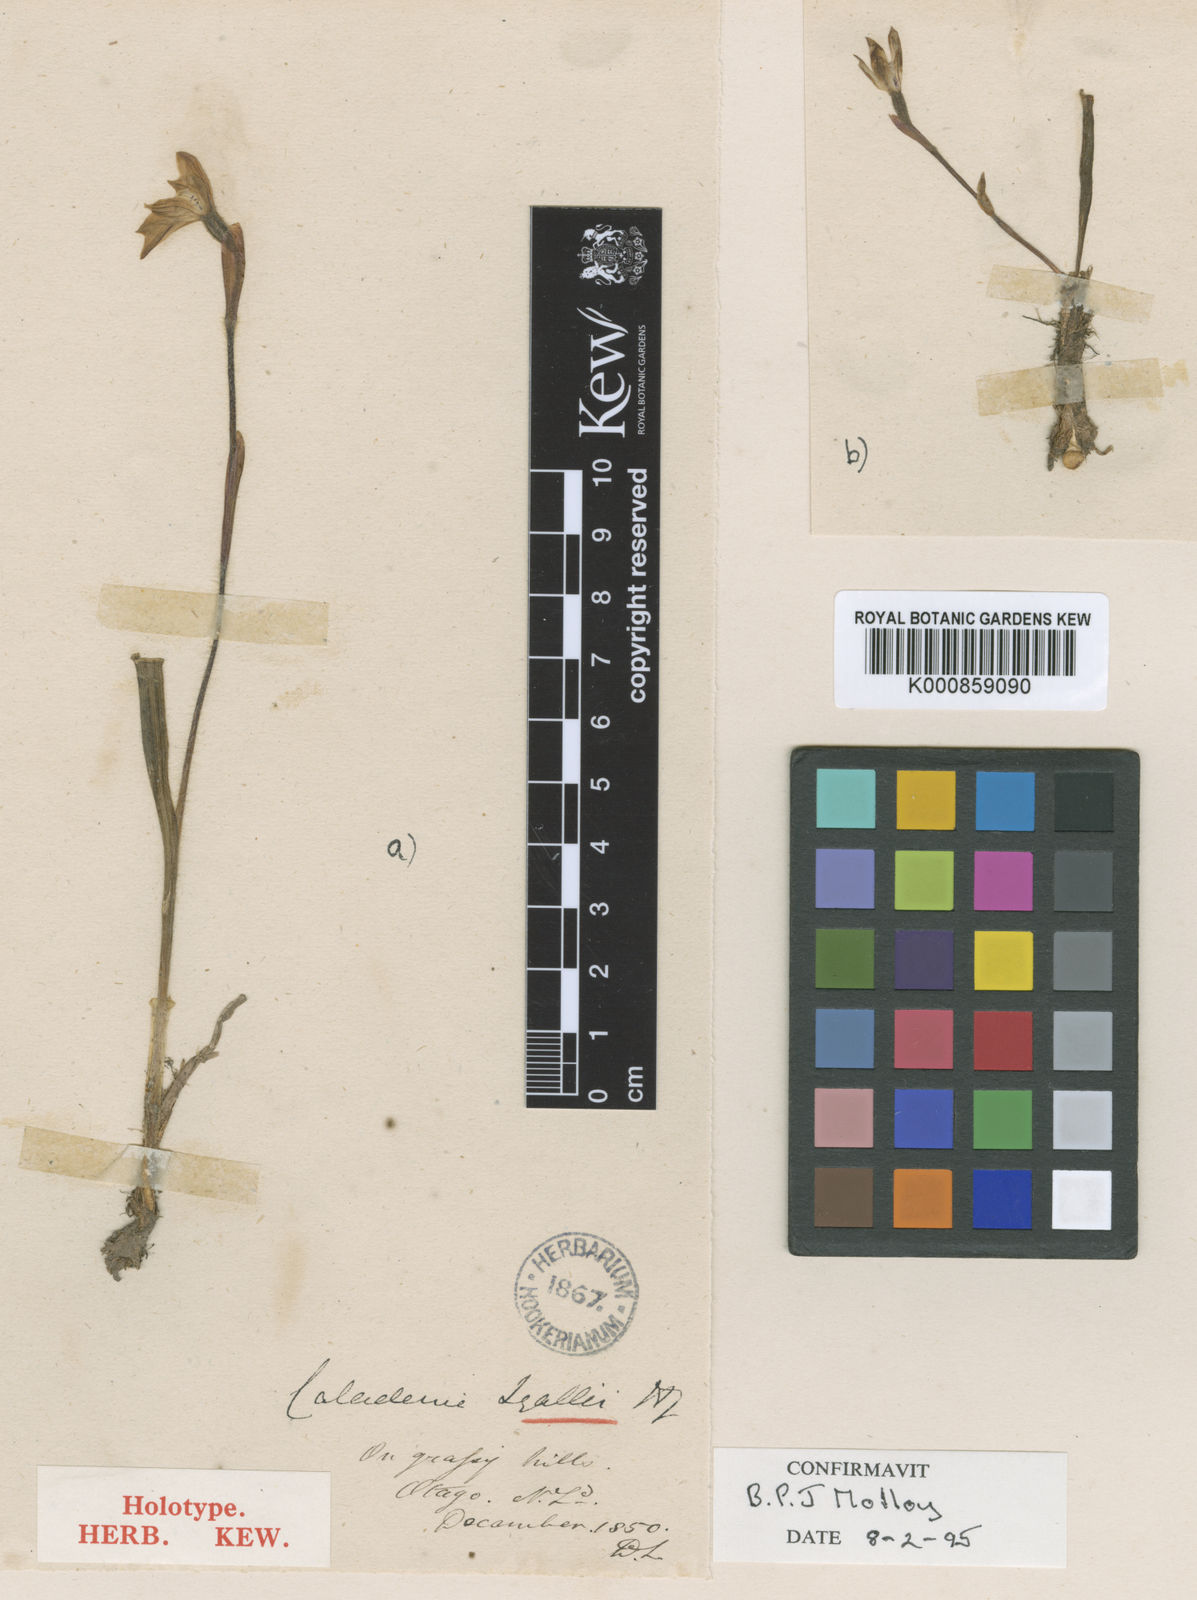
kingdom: Plantae
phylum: Tracheophyta
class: Liliopsida
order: Asparagales
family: Orchidaceae
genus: Caladenia
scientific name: Caladenia lyallii
